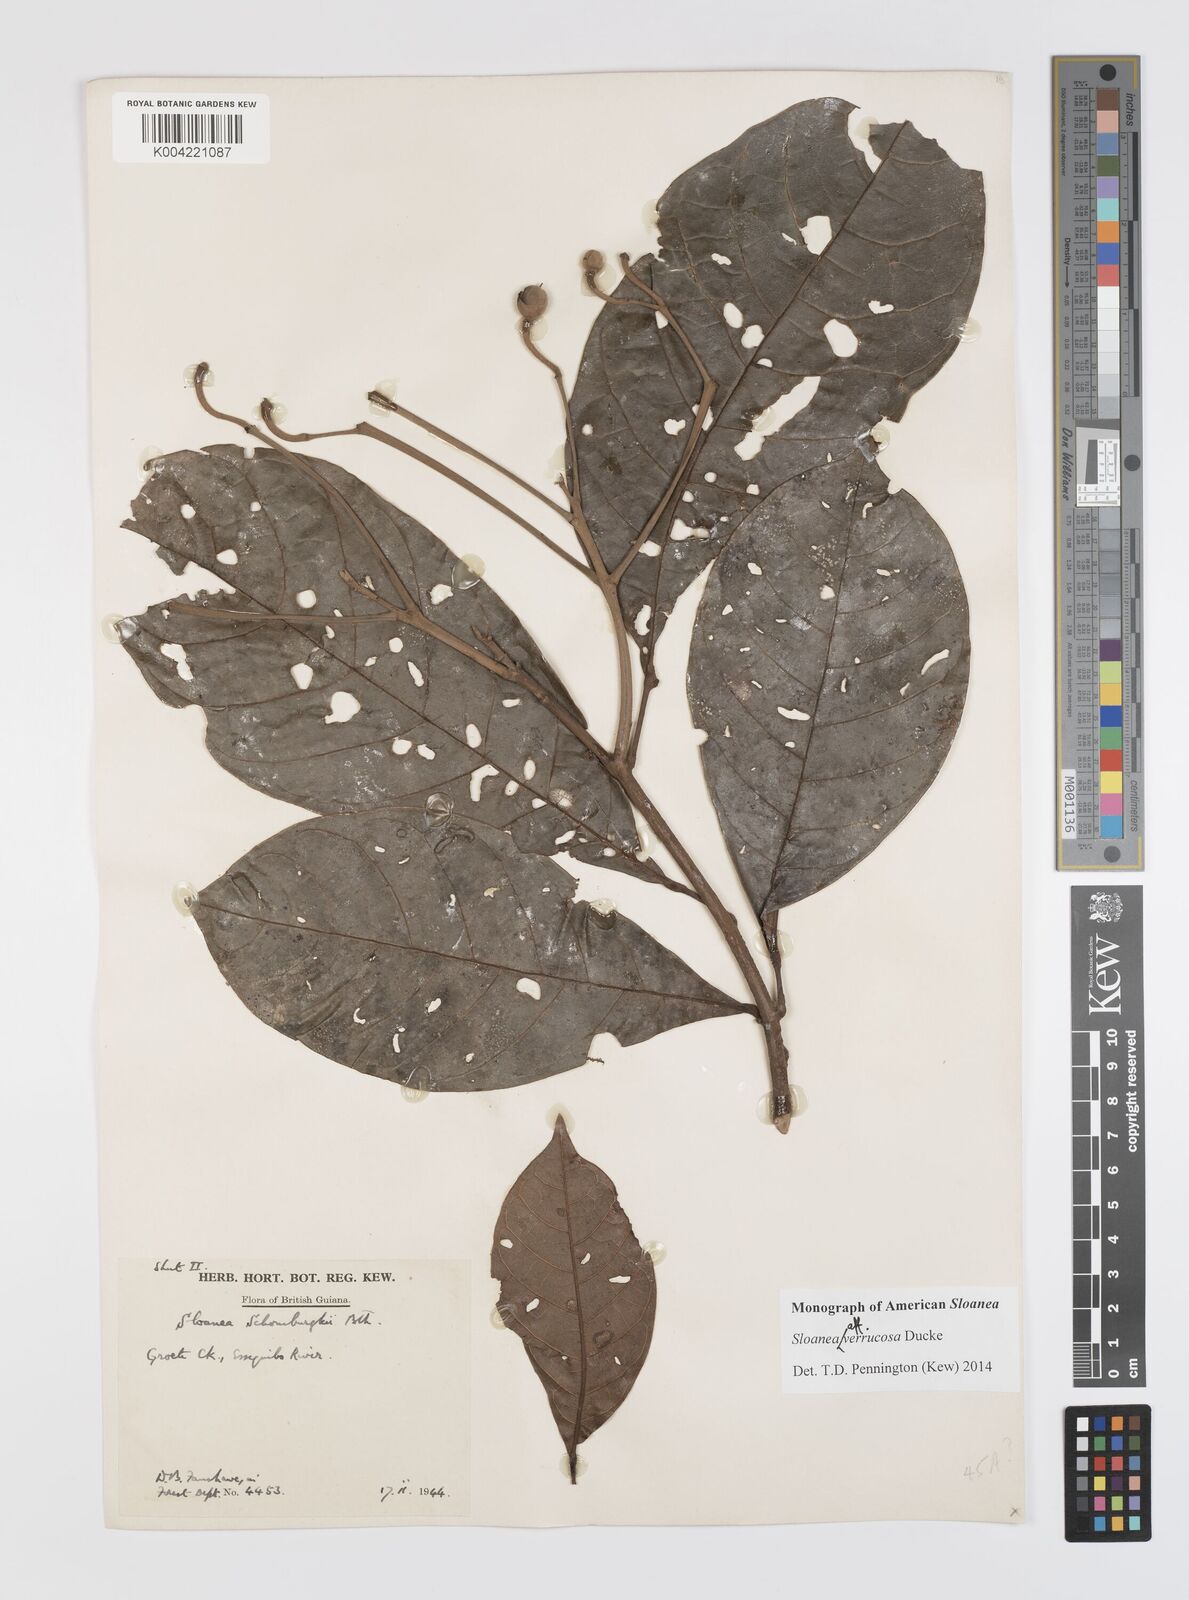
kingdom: Plantae
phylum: Tracheophyta
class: Magnoliopsida
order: Oxalidales
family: Elaeocarpaceae
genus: Sloanea
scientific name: Sloanea schomburgkii
